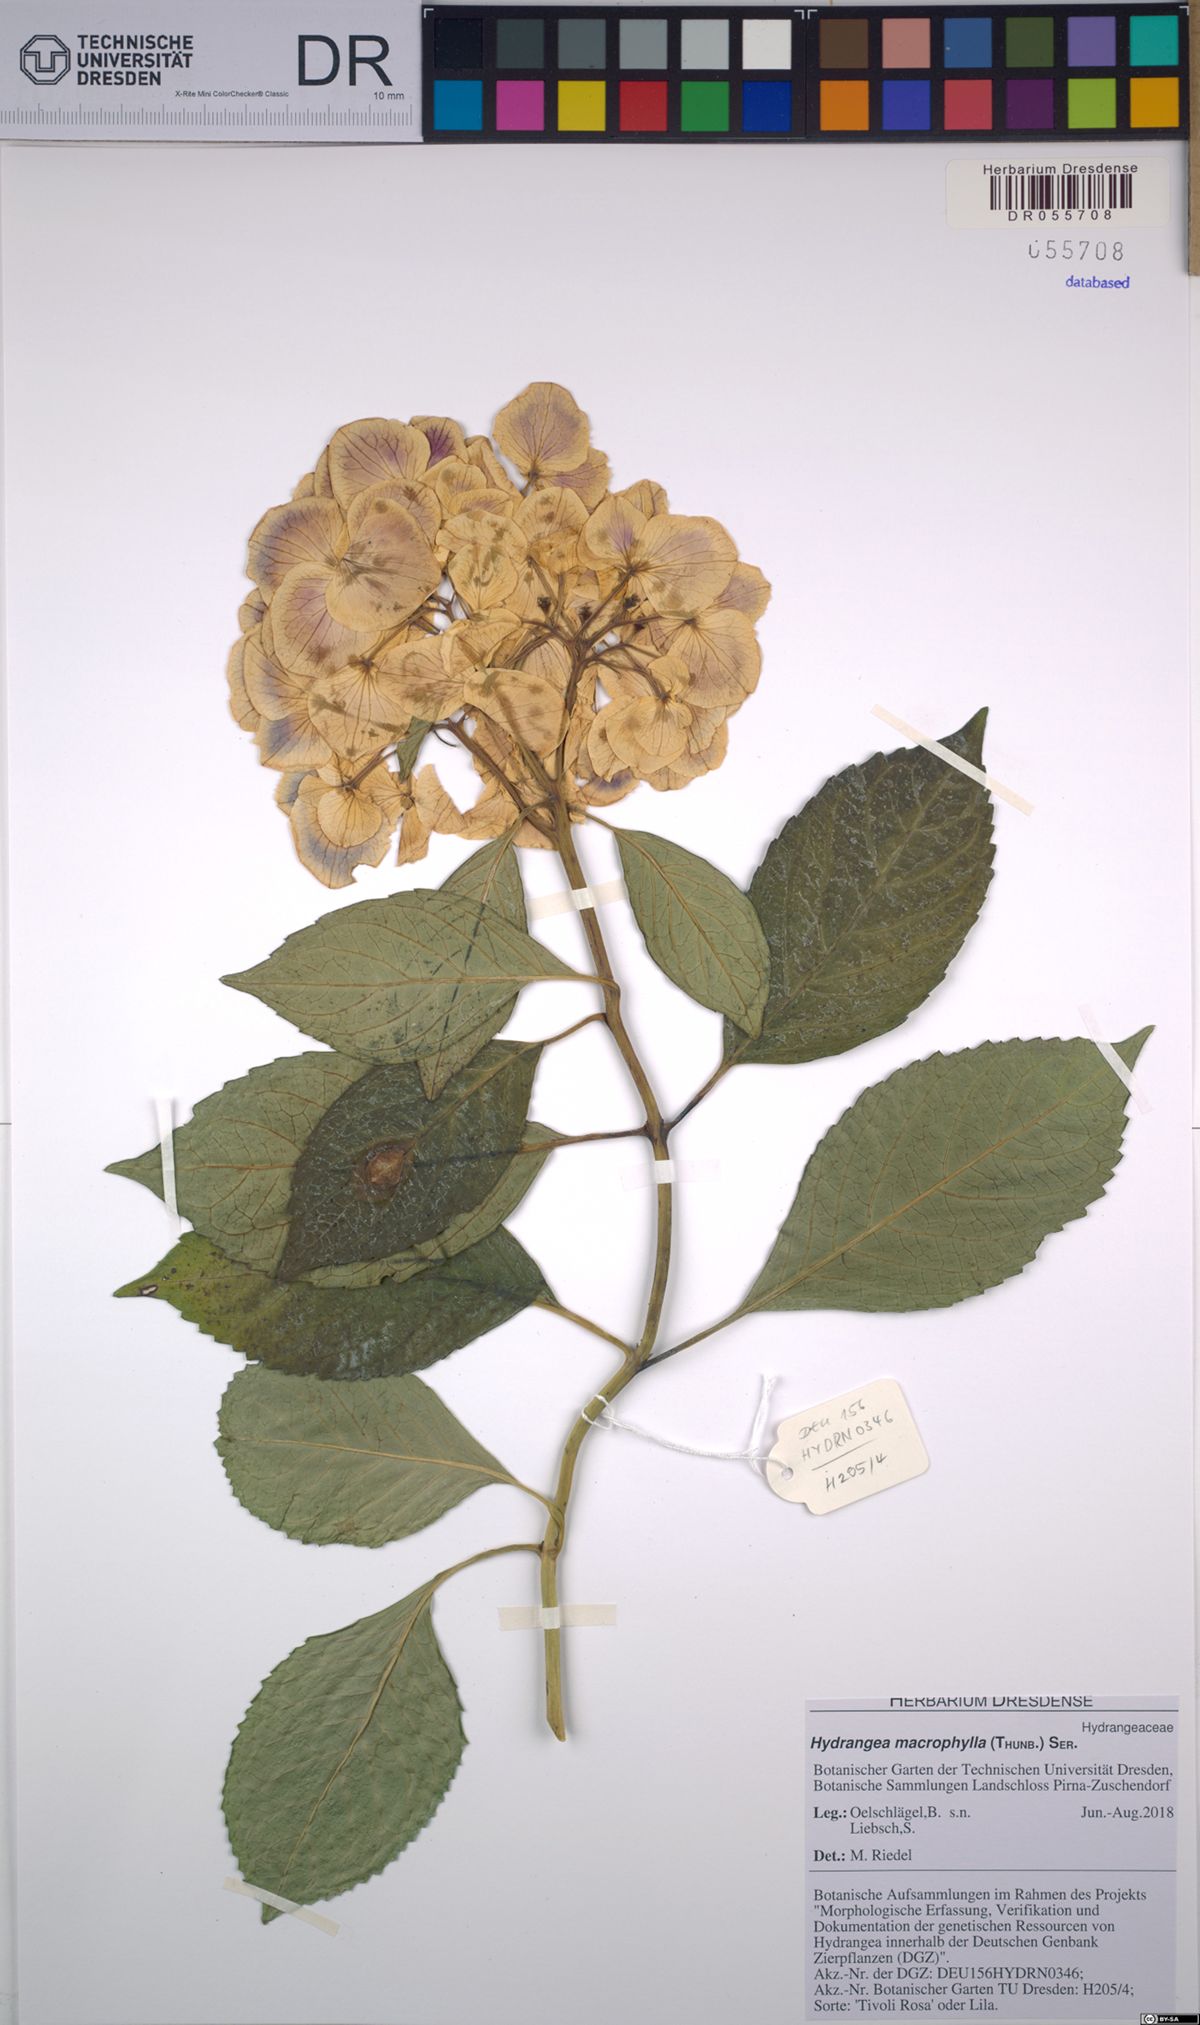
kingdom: Plantae
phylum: Tracheophyta
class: Magnoliopsida
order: Cornales
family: Hydrangeaceae
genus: Hydrangea
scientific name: Hydrangea macrophylla
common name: Hydrangea
